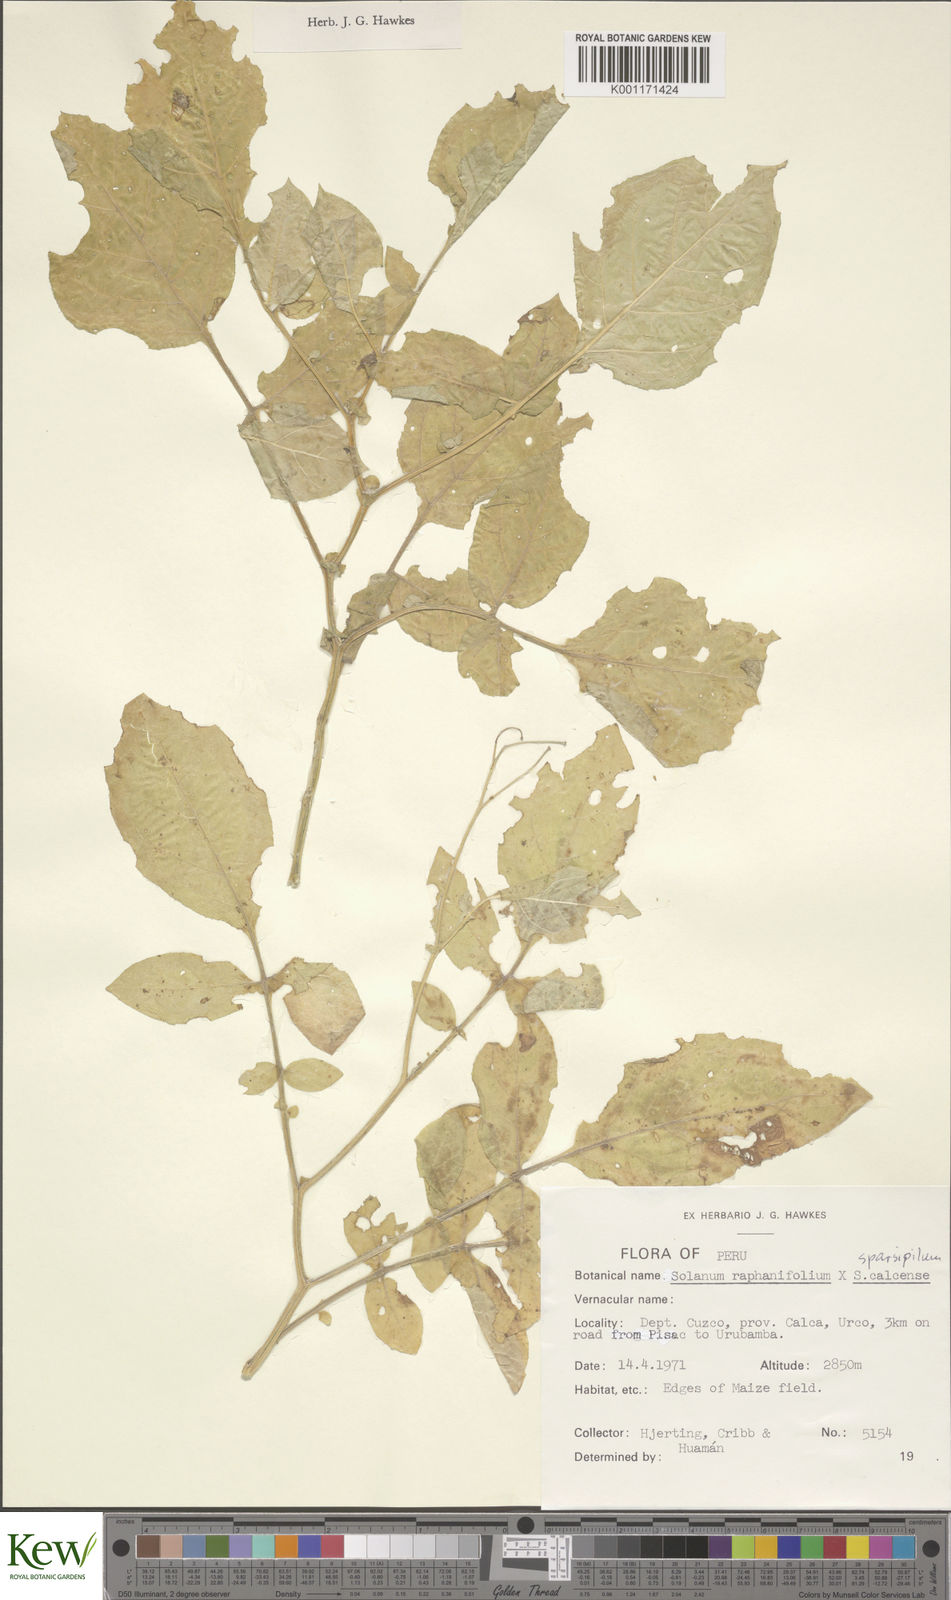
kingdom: Plantae
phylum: Tracheophyta
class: Magnoliopsida
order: Solanales
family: Solanaceae
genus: Solanum
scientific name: Solanum brevicaule
